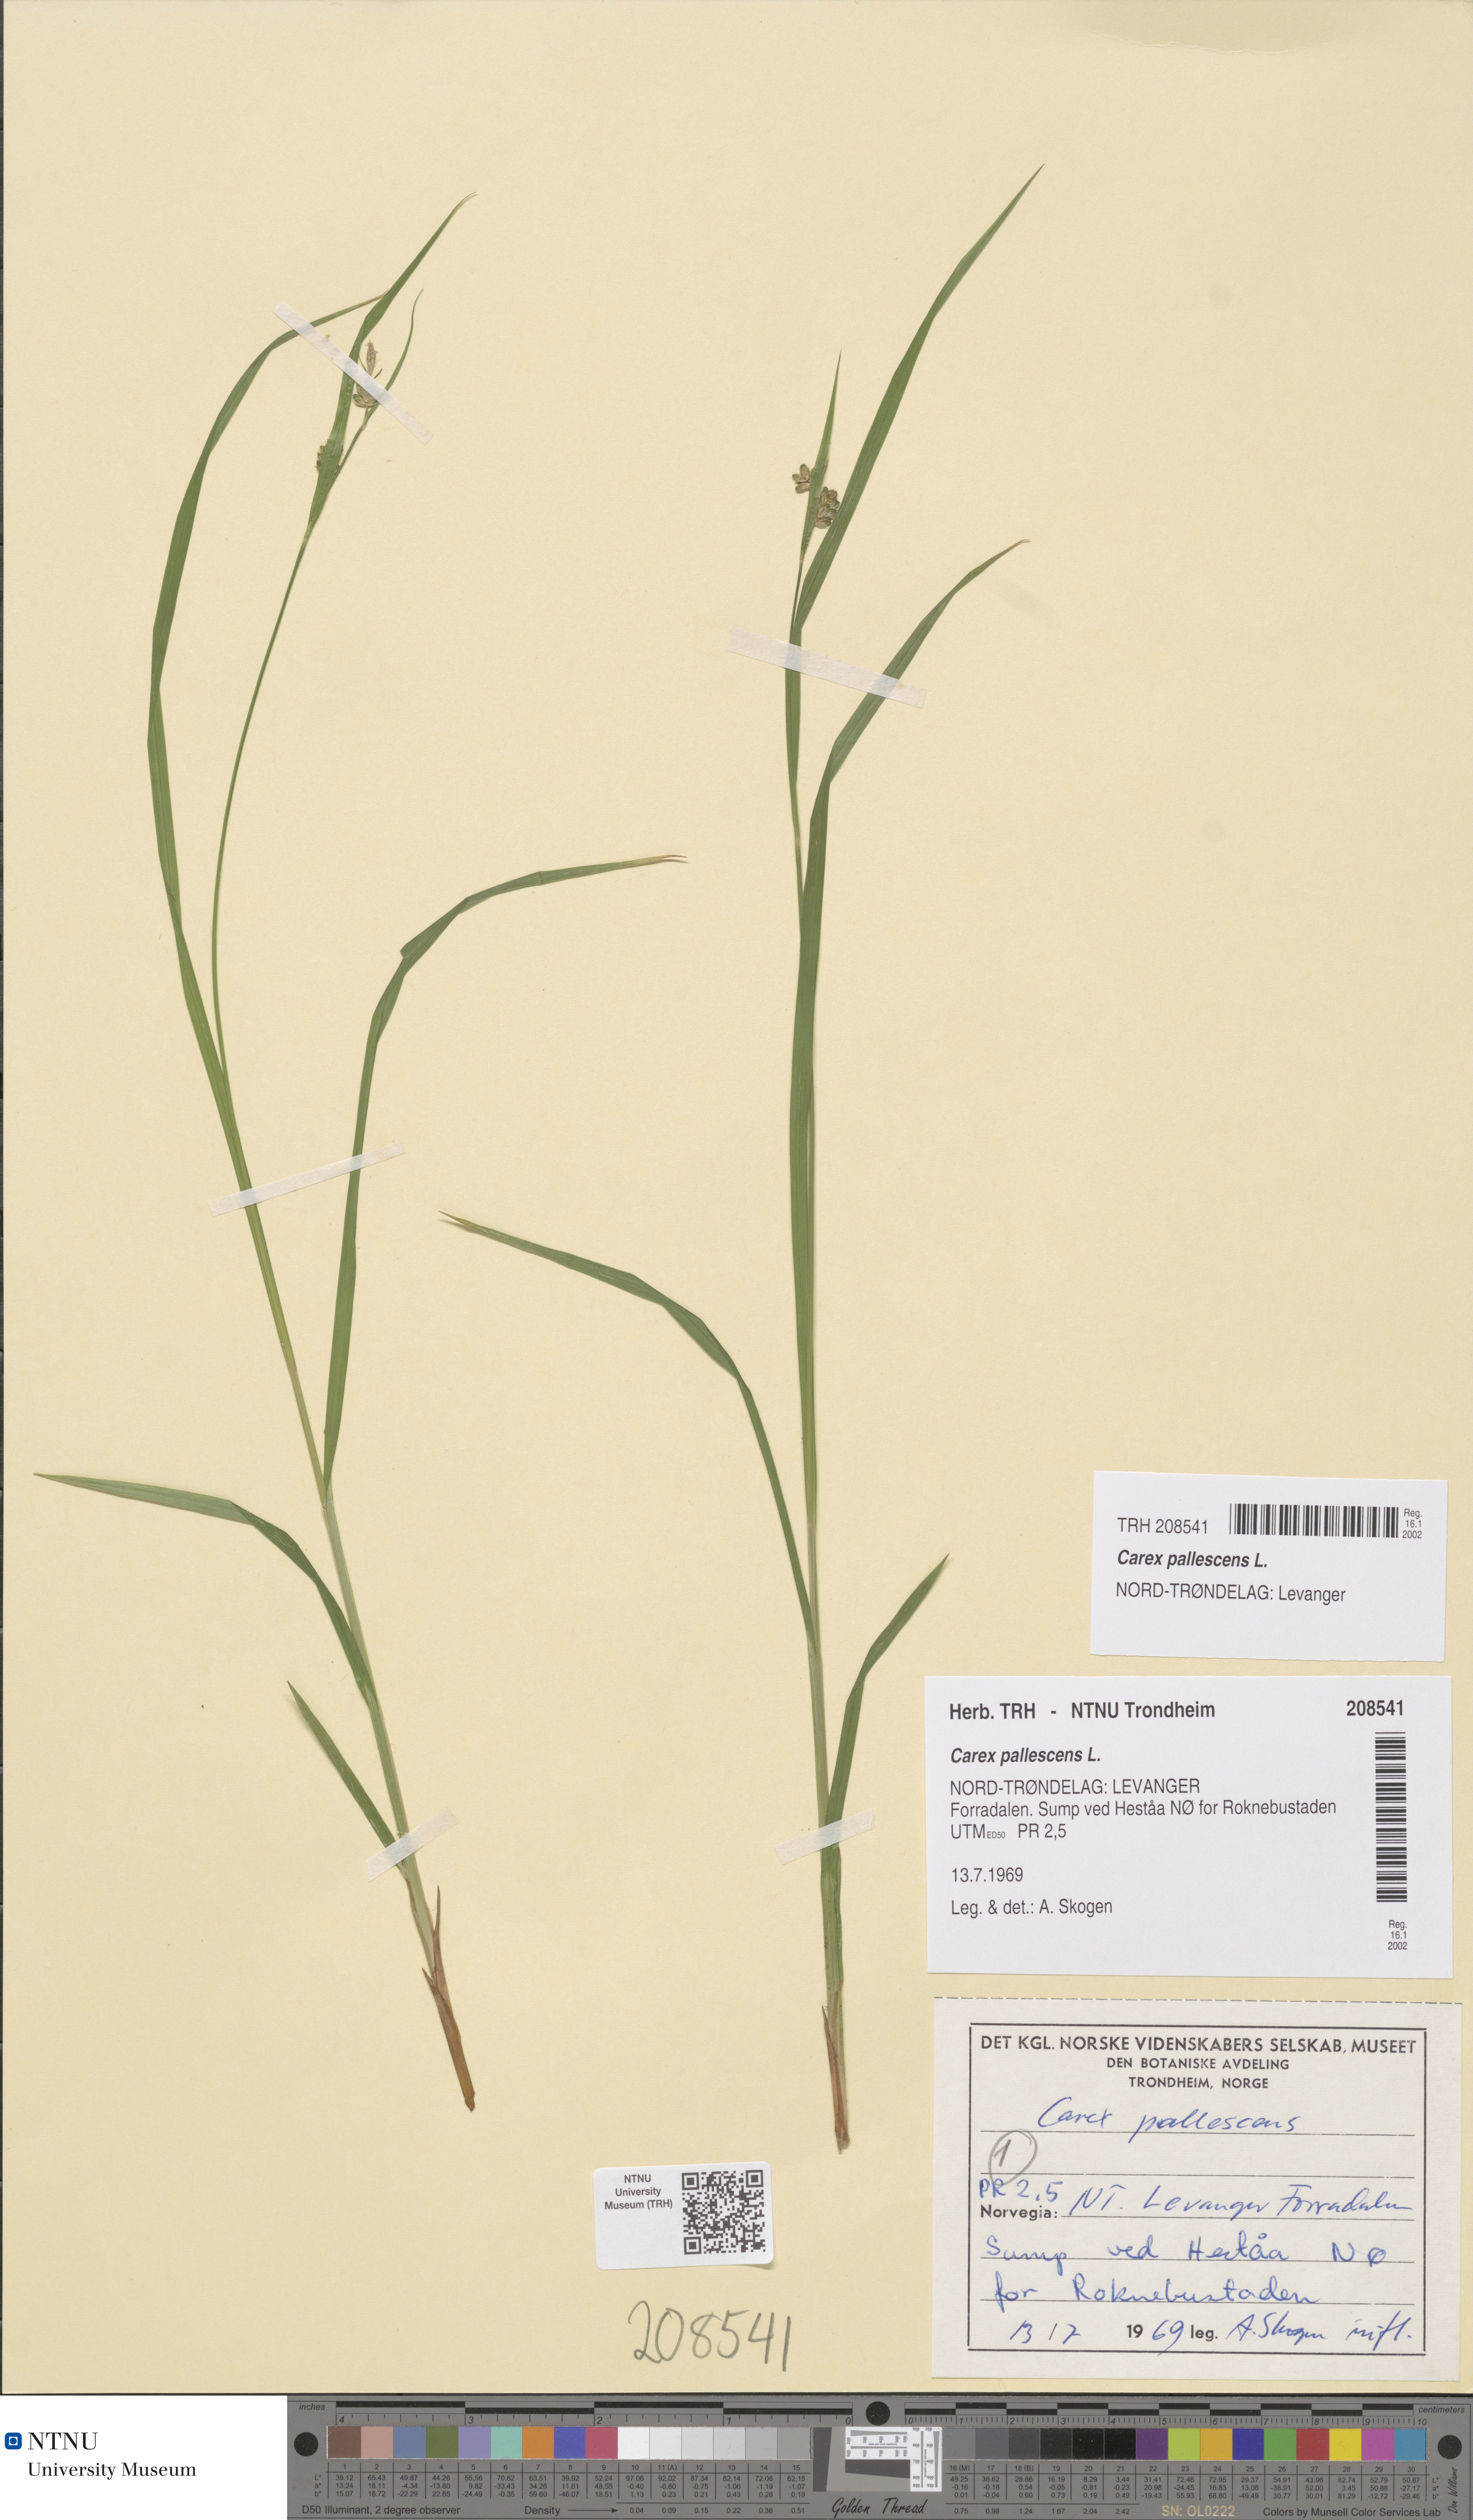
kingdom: Plantae
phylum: Tracheophyta
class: Liliopsida
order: Poales
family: Cyperaceae
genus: Carex
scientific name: Carex pallescens
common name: Pale sedge
